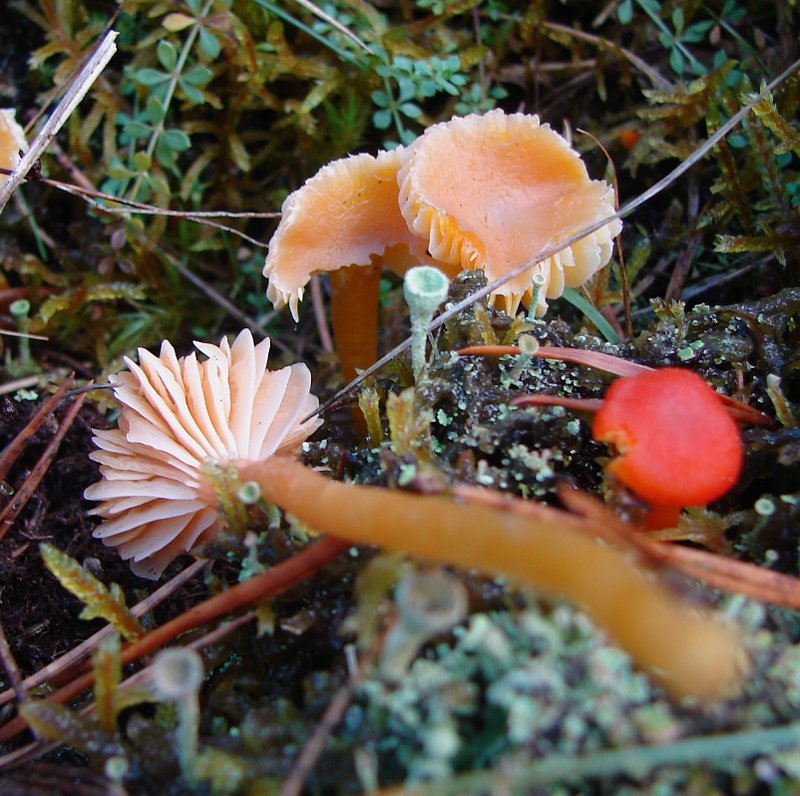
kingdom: Fungi
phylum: Basidiomycota
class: Agaricomycetes
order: Agaricales
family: Hygrophoraceae
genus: Gliophorus
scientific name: Gliophorus laetus
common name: brusk-vokshat
